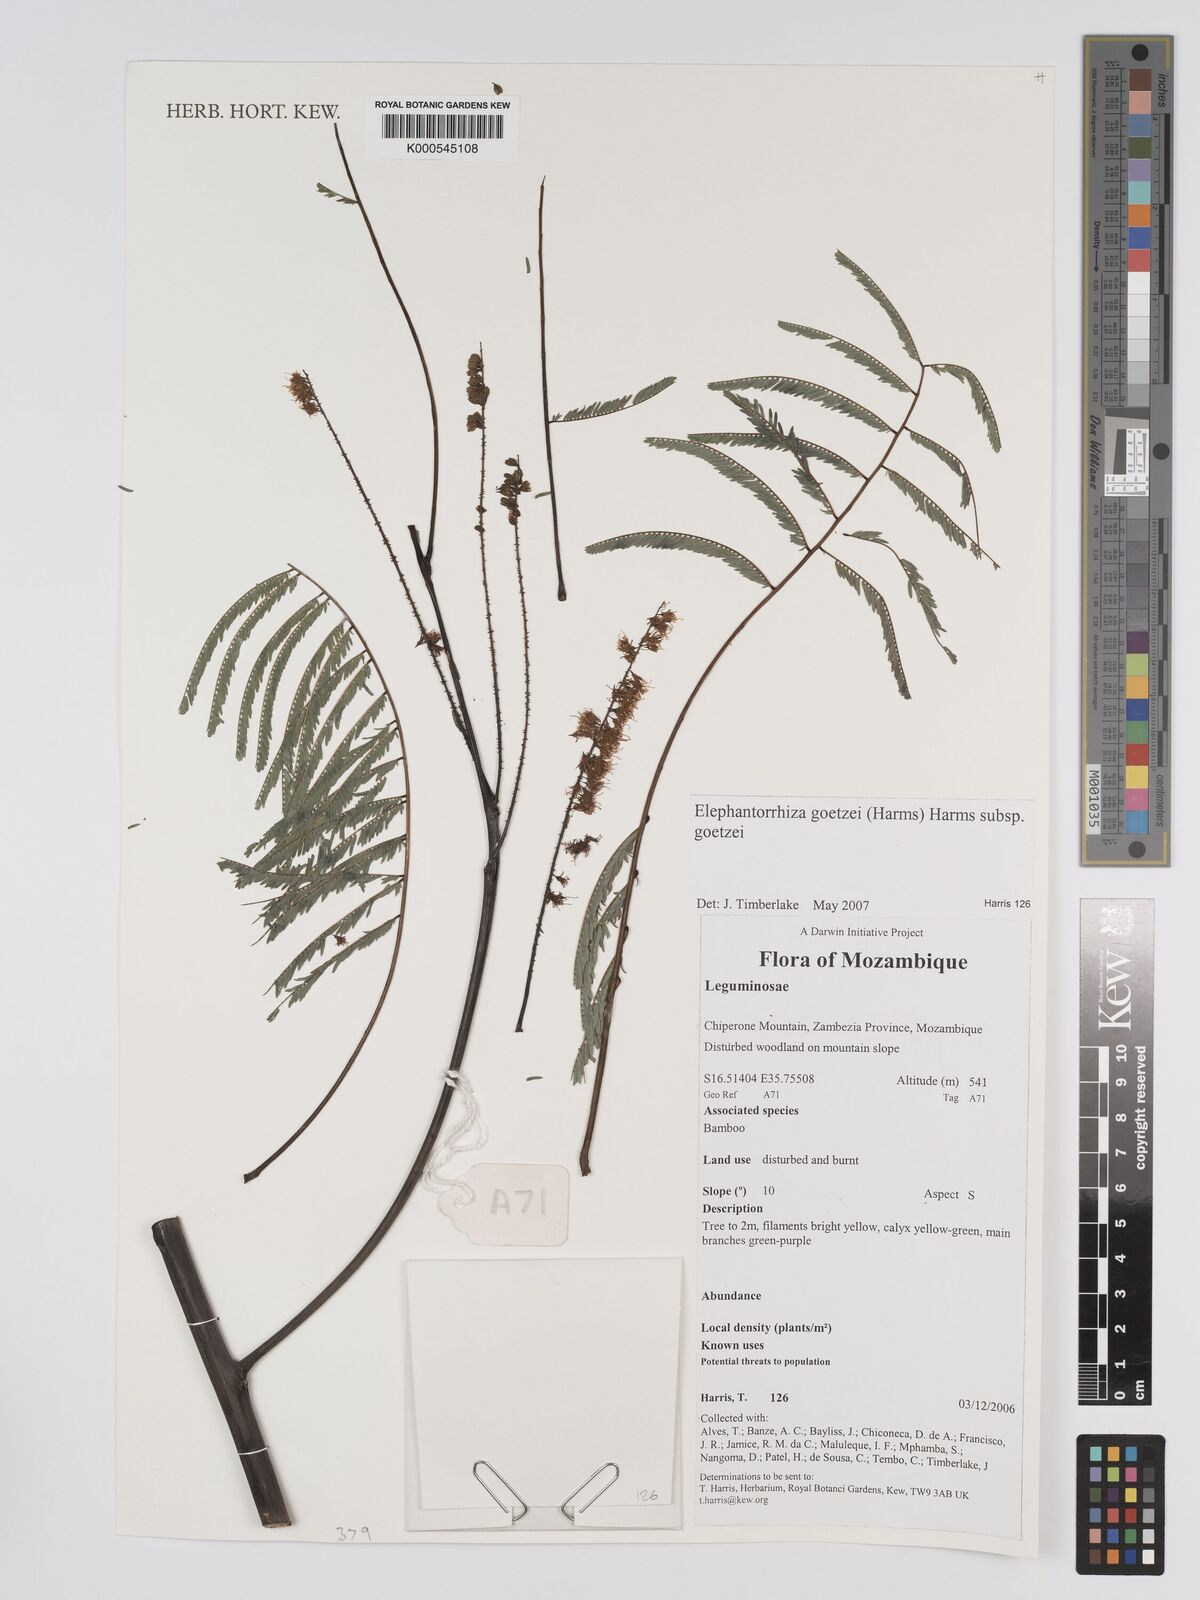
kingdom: Plantae
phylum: Tracheophyta
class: Magnoliopsida
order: Fabales
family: Fabaceae
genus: Elephantorrhiza
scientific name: Elephantorrhiza goetzei
